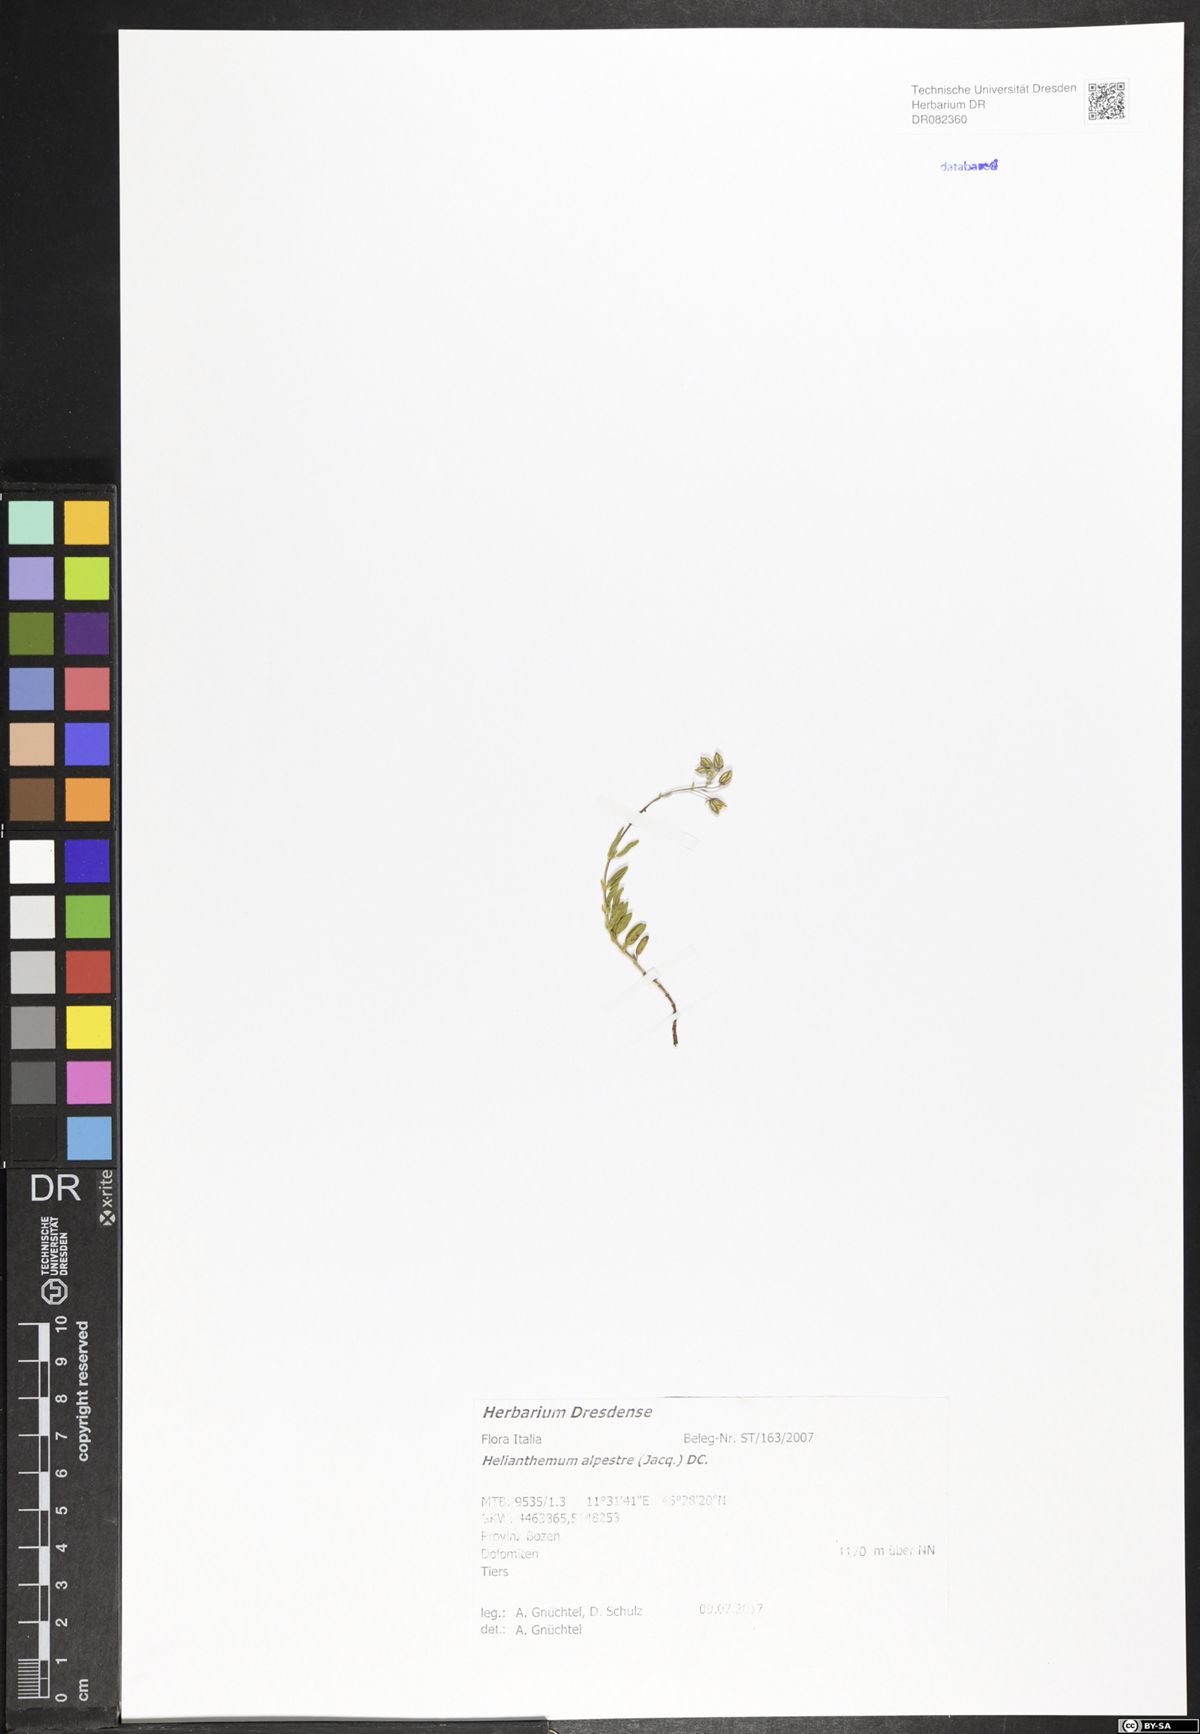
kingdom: Plantae
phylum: Tracheophyta
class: Magnoliopsida
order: Malvales
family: Cistaceae
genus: Helianthemum
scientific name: Helianthemum alpestre
